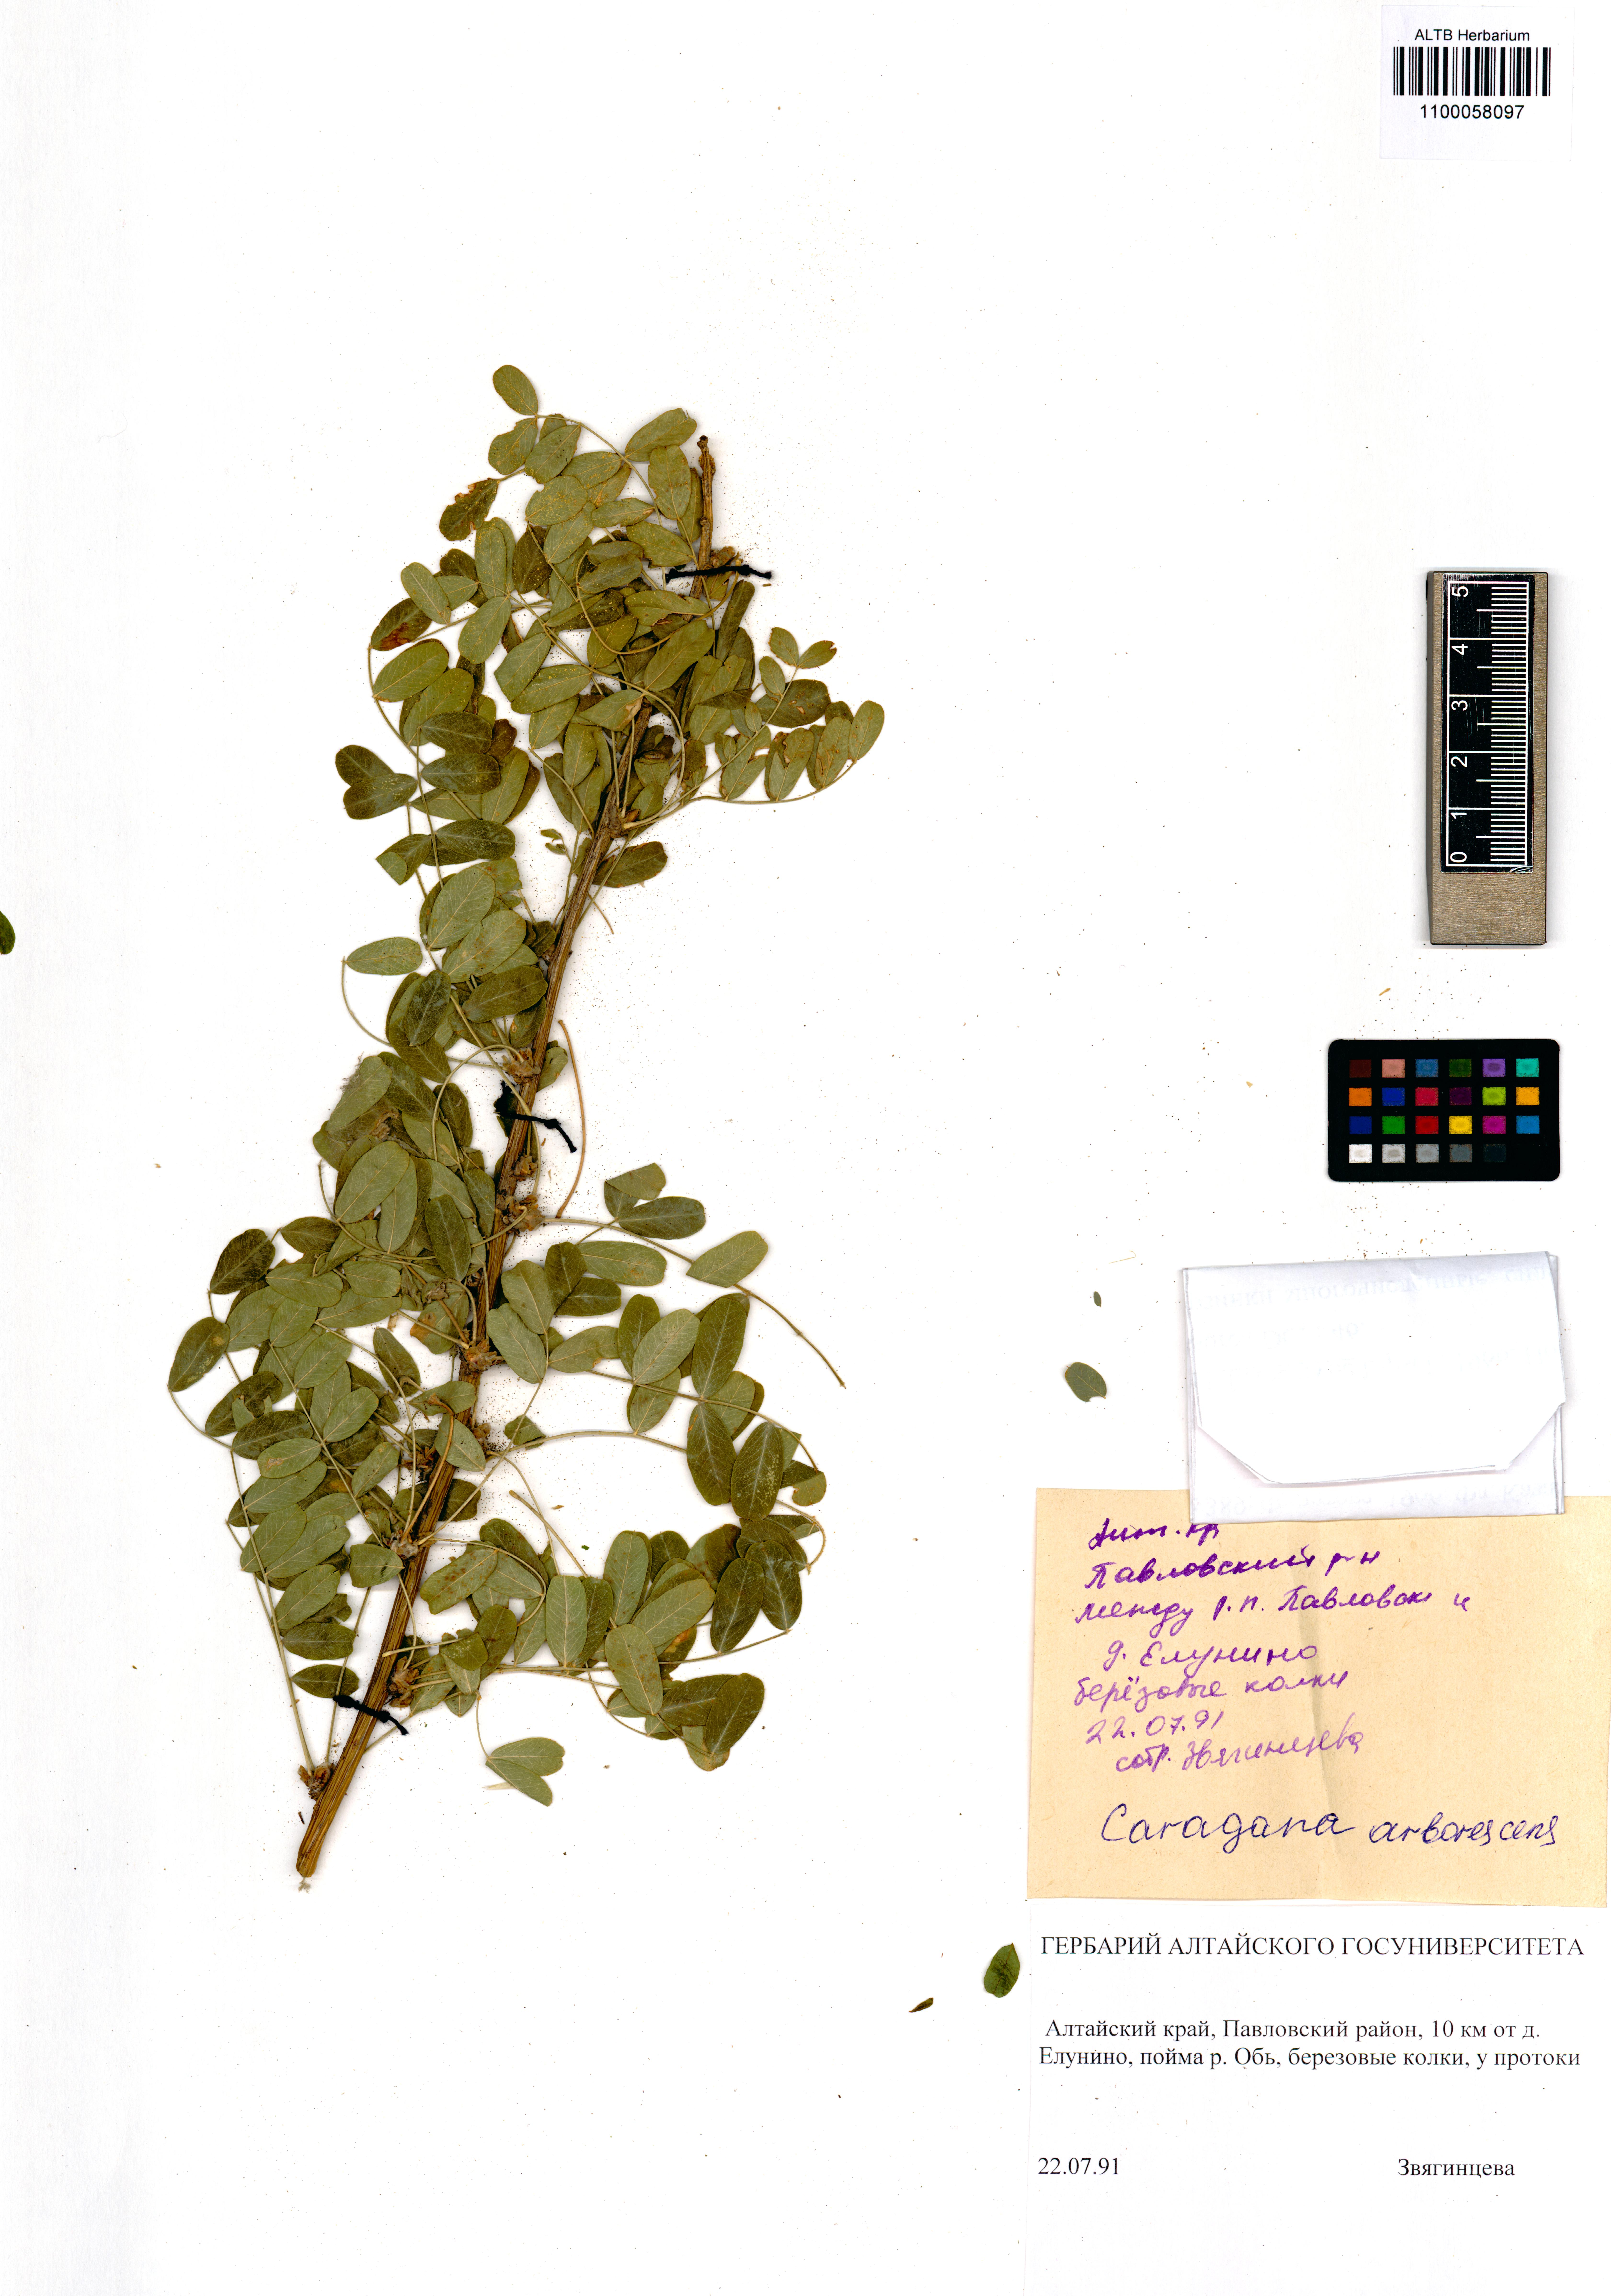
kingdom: Plantae
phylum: Tracheophyta
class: Magnoliopsida
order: Fabales
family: Fabaceae
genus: Caragana
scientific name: Caragana arborescens
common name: Siberian peashrub
